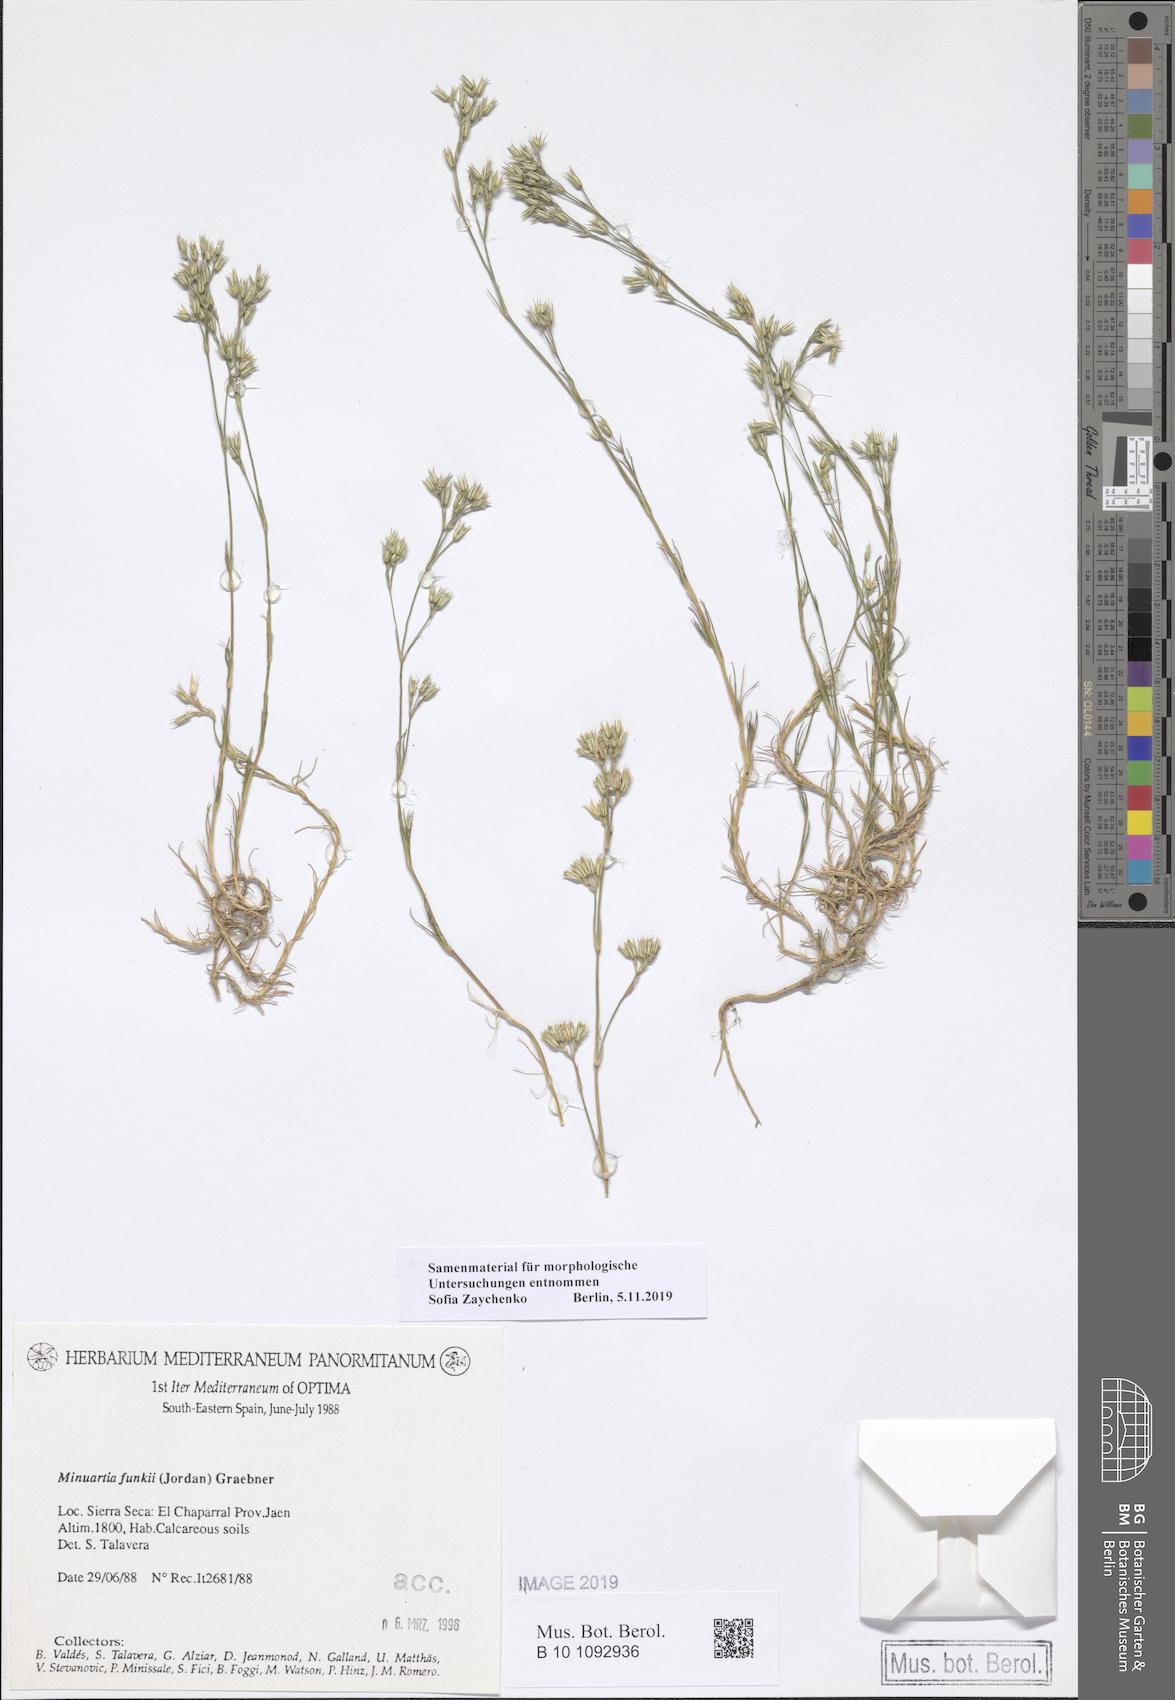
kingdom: Plantae
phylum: Tracheophyta
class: Magnoliopsida
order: Caryophyllales
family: Caryophyllaceae
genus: Minuartia
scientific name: Minuartia funkii
